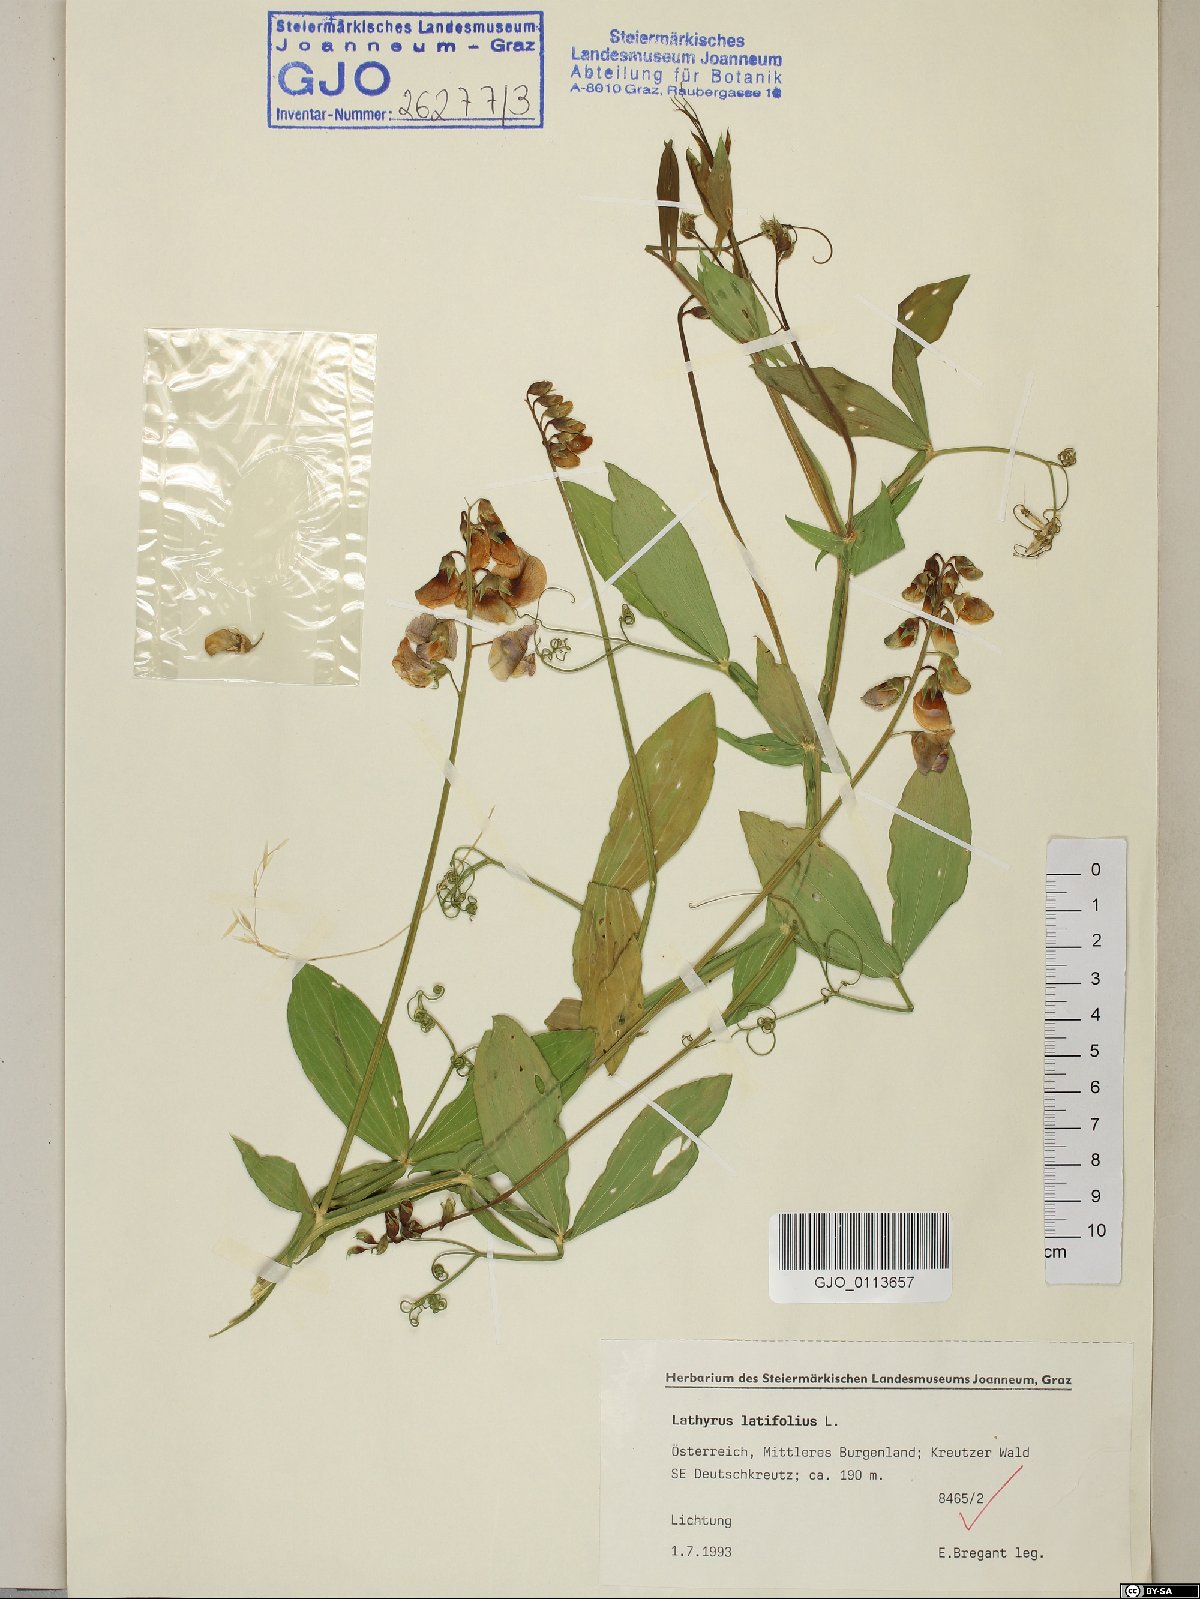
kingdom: Plantae
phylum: Tracheophyta
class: Magnoliopsida
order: Fabales
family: Fabaceae
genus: Lathyrus
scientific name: Lathyrus latifolius
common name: Perennial pea
